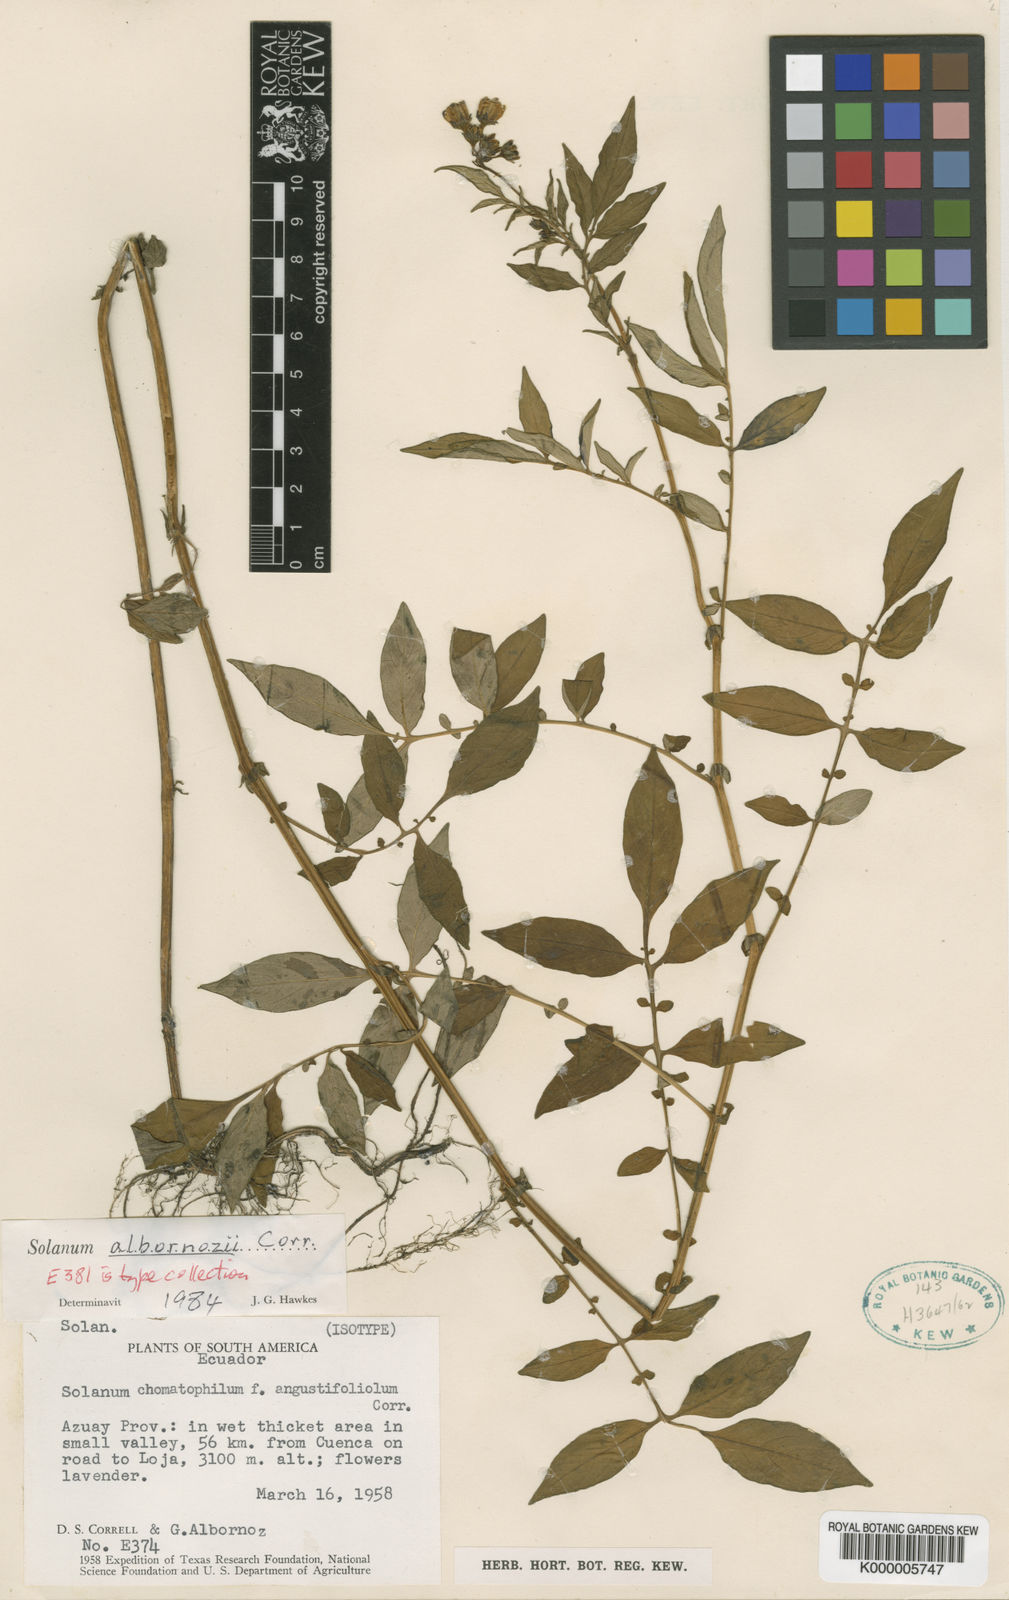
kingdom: Plantae
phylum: Tracheophyta
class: Magnoliopsida
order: Solanales
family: Solanaceae
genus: Solanum
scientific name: Solanum albornozii
